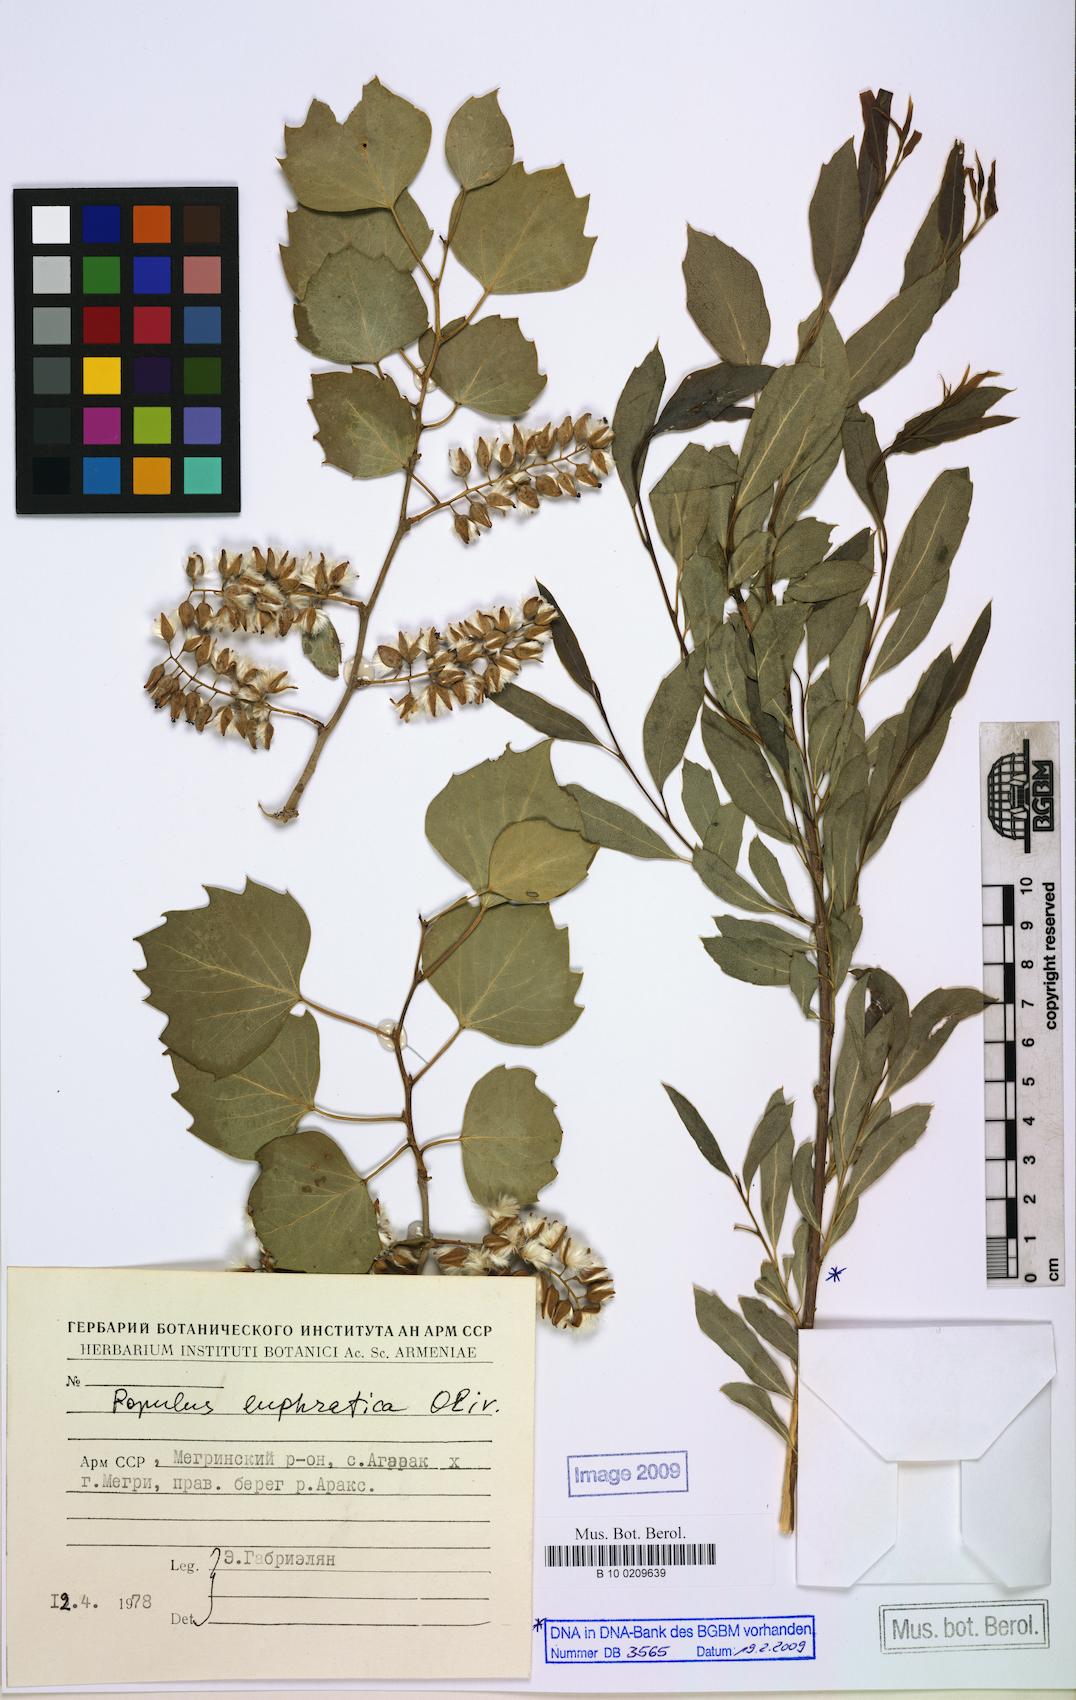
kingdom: Plantae
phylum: Tracheophyta
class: Magnoliopsida
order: Malpighiales
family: Salicaceae
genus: Populus
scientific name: Populus euphratica
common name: Euphrates poplar
